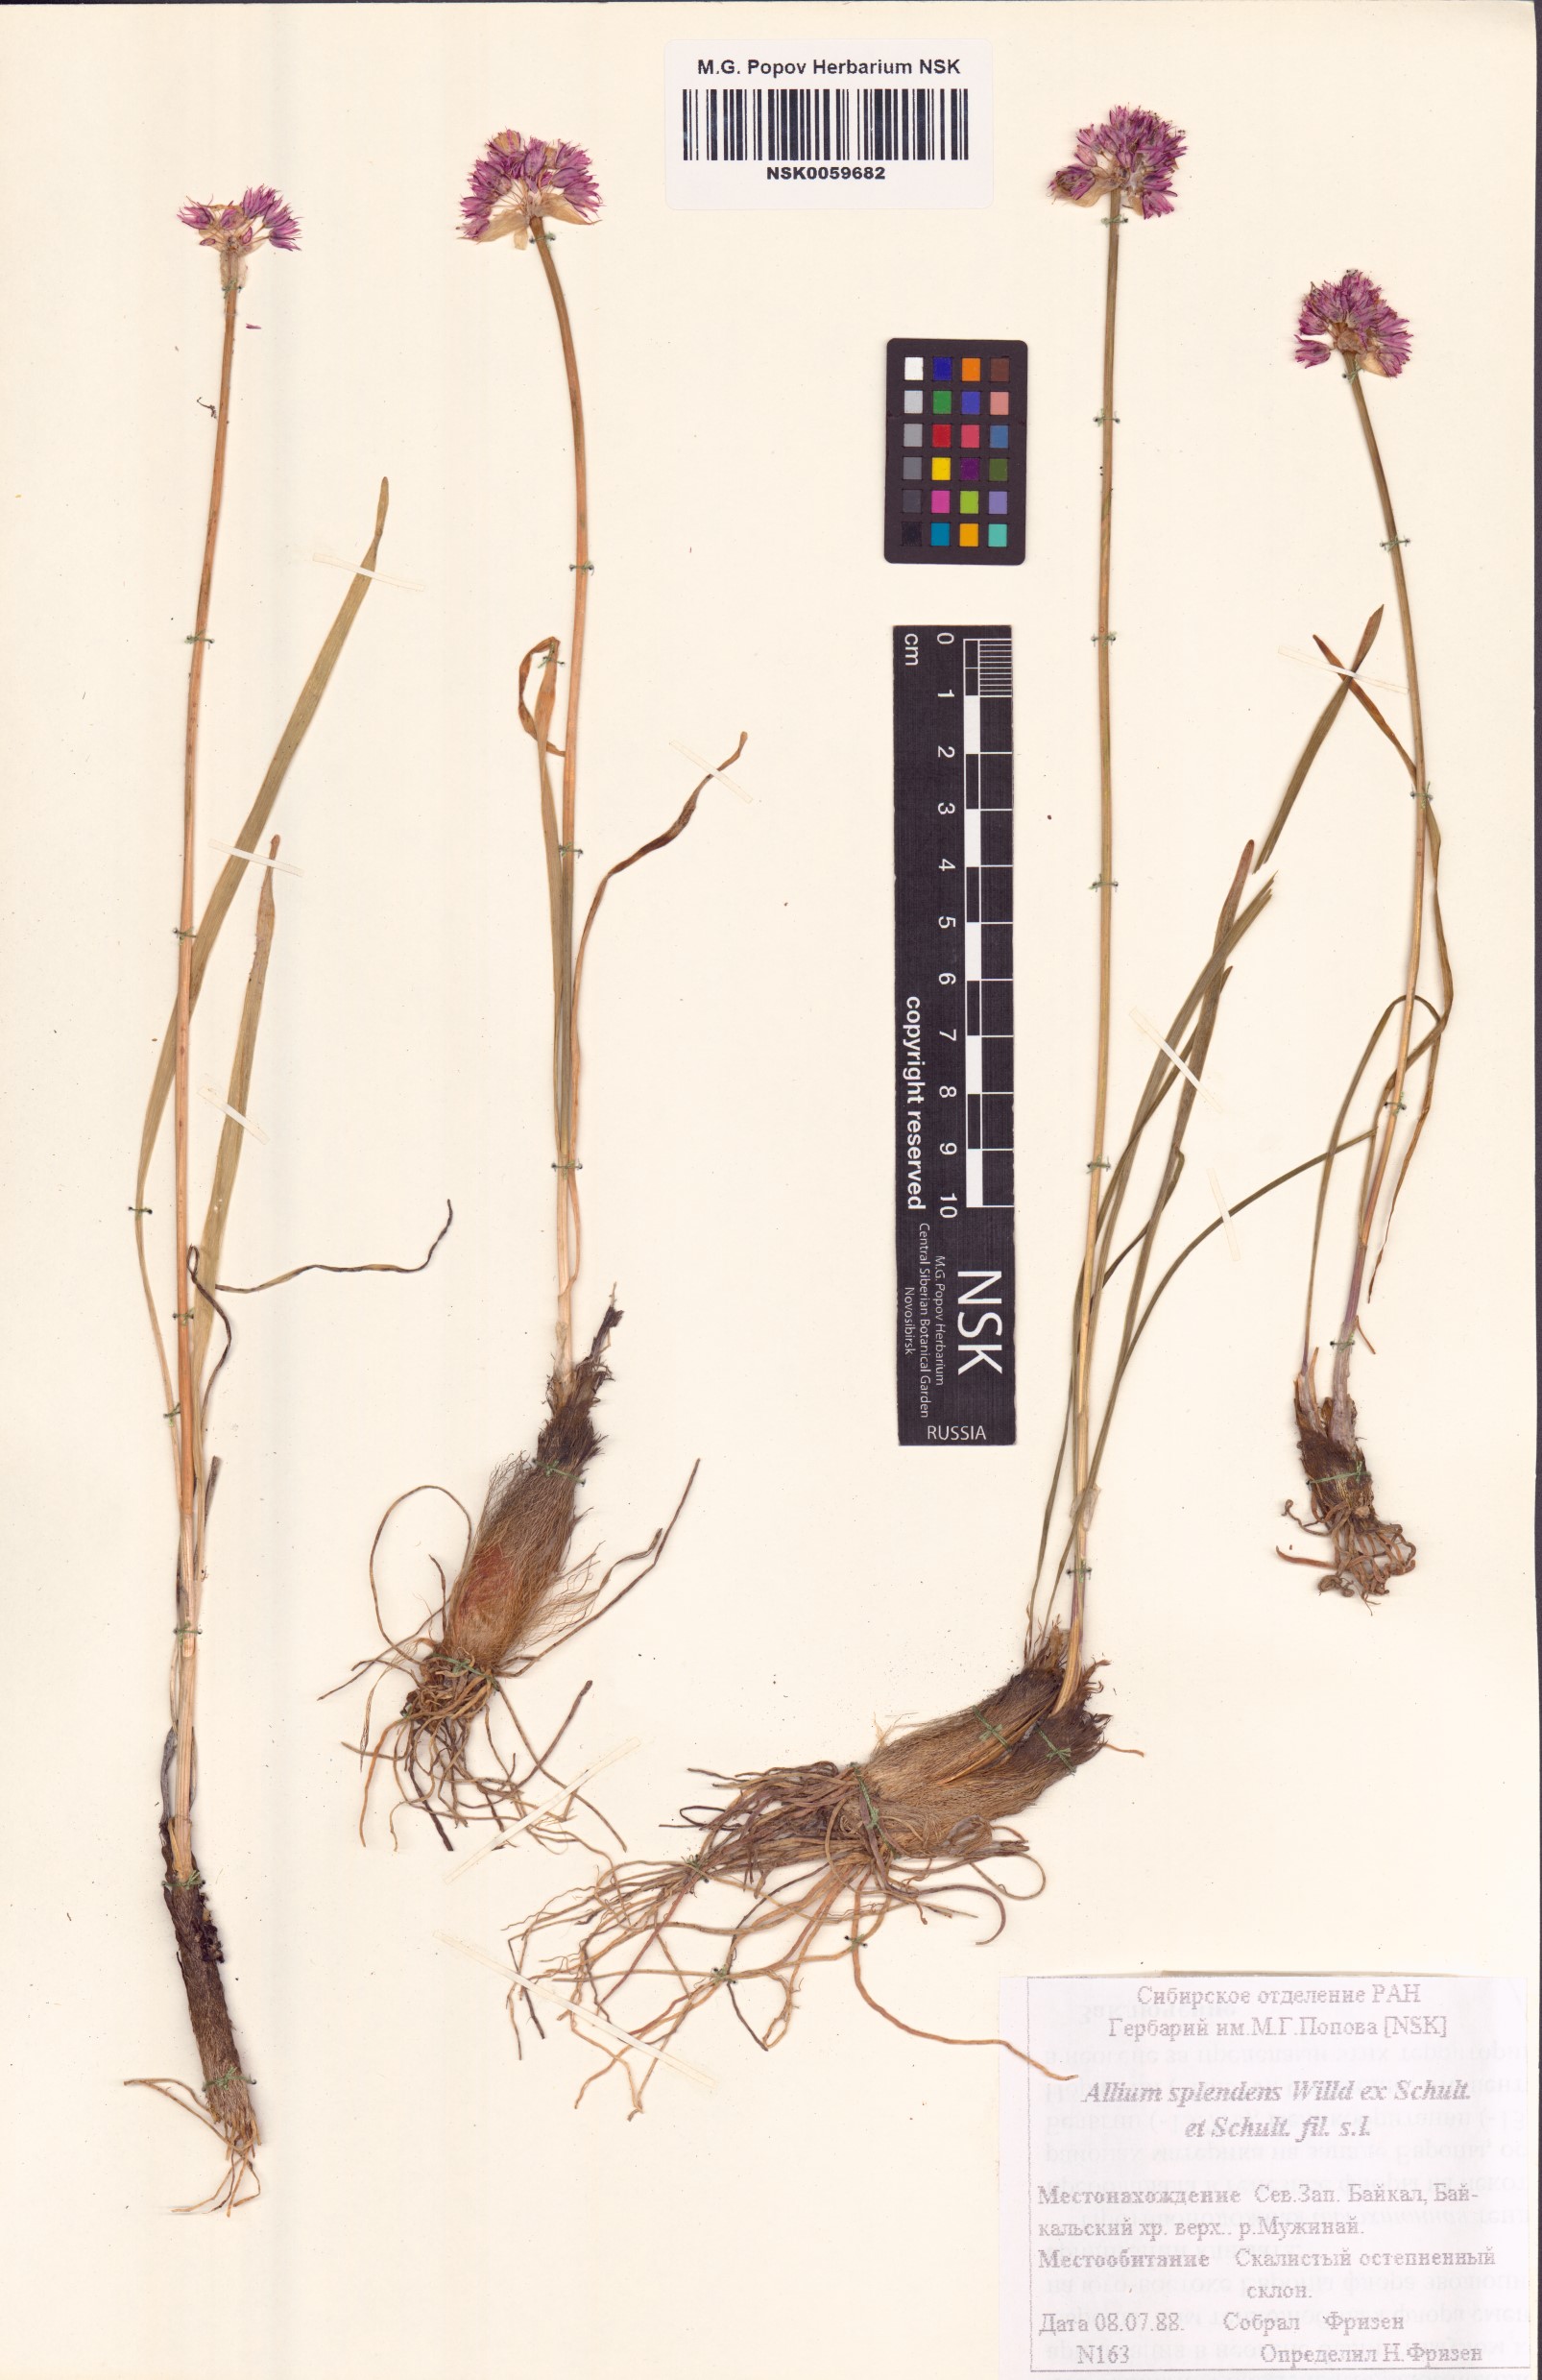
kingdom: Plantae
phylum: Tracheophyta
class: Liliopsida
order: Asparagales
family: Amaryllidaceae
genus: Allium
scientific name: Allium splendens
